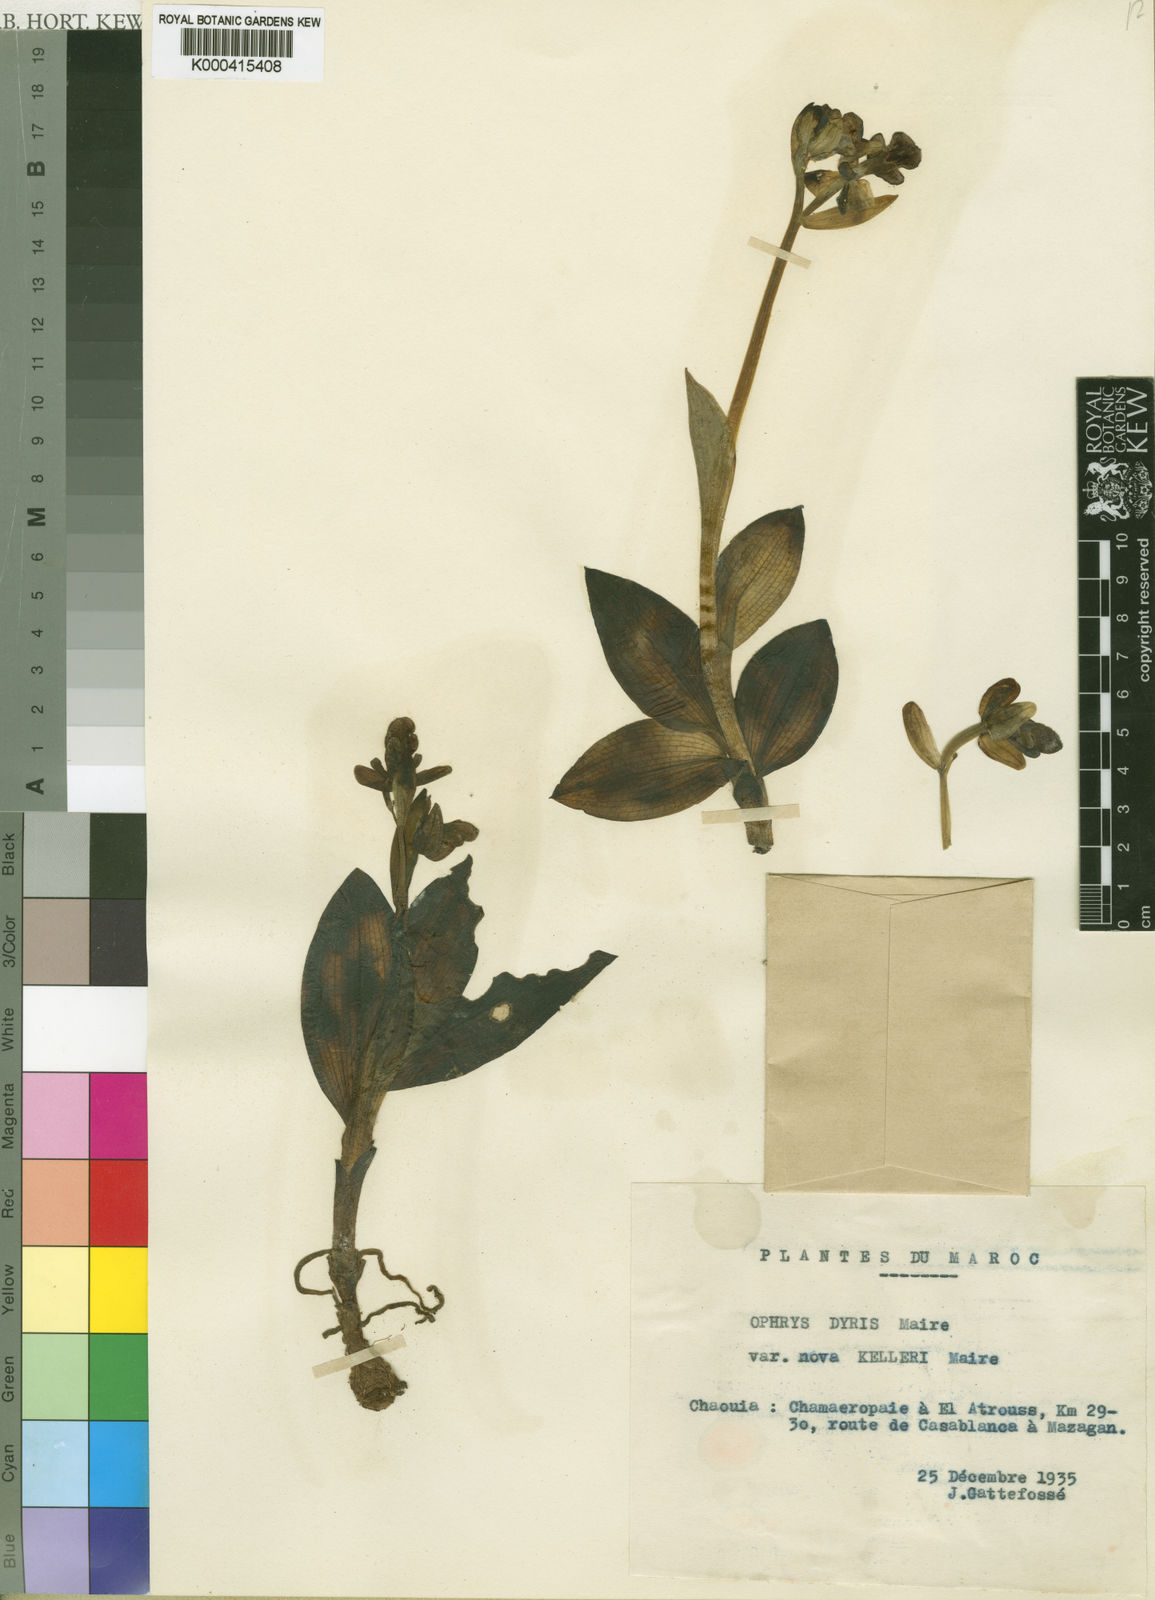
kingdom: Plantae
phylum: Tracheophyta
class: Liliopsida
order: Asparagales
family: Orchidaceae
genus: Ophrys
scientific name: Ophrys
